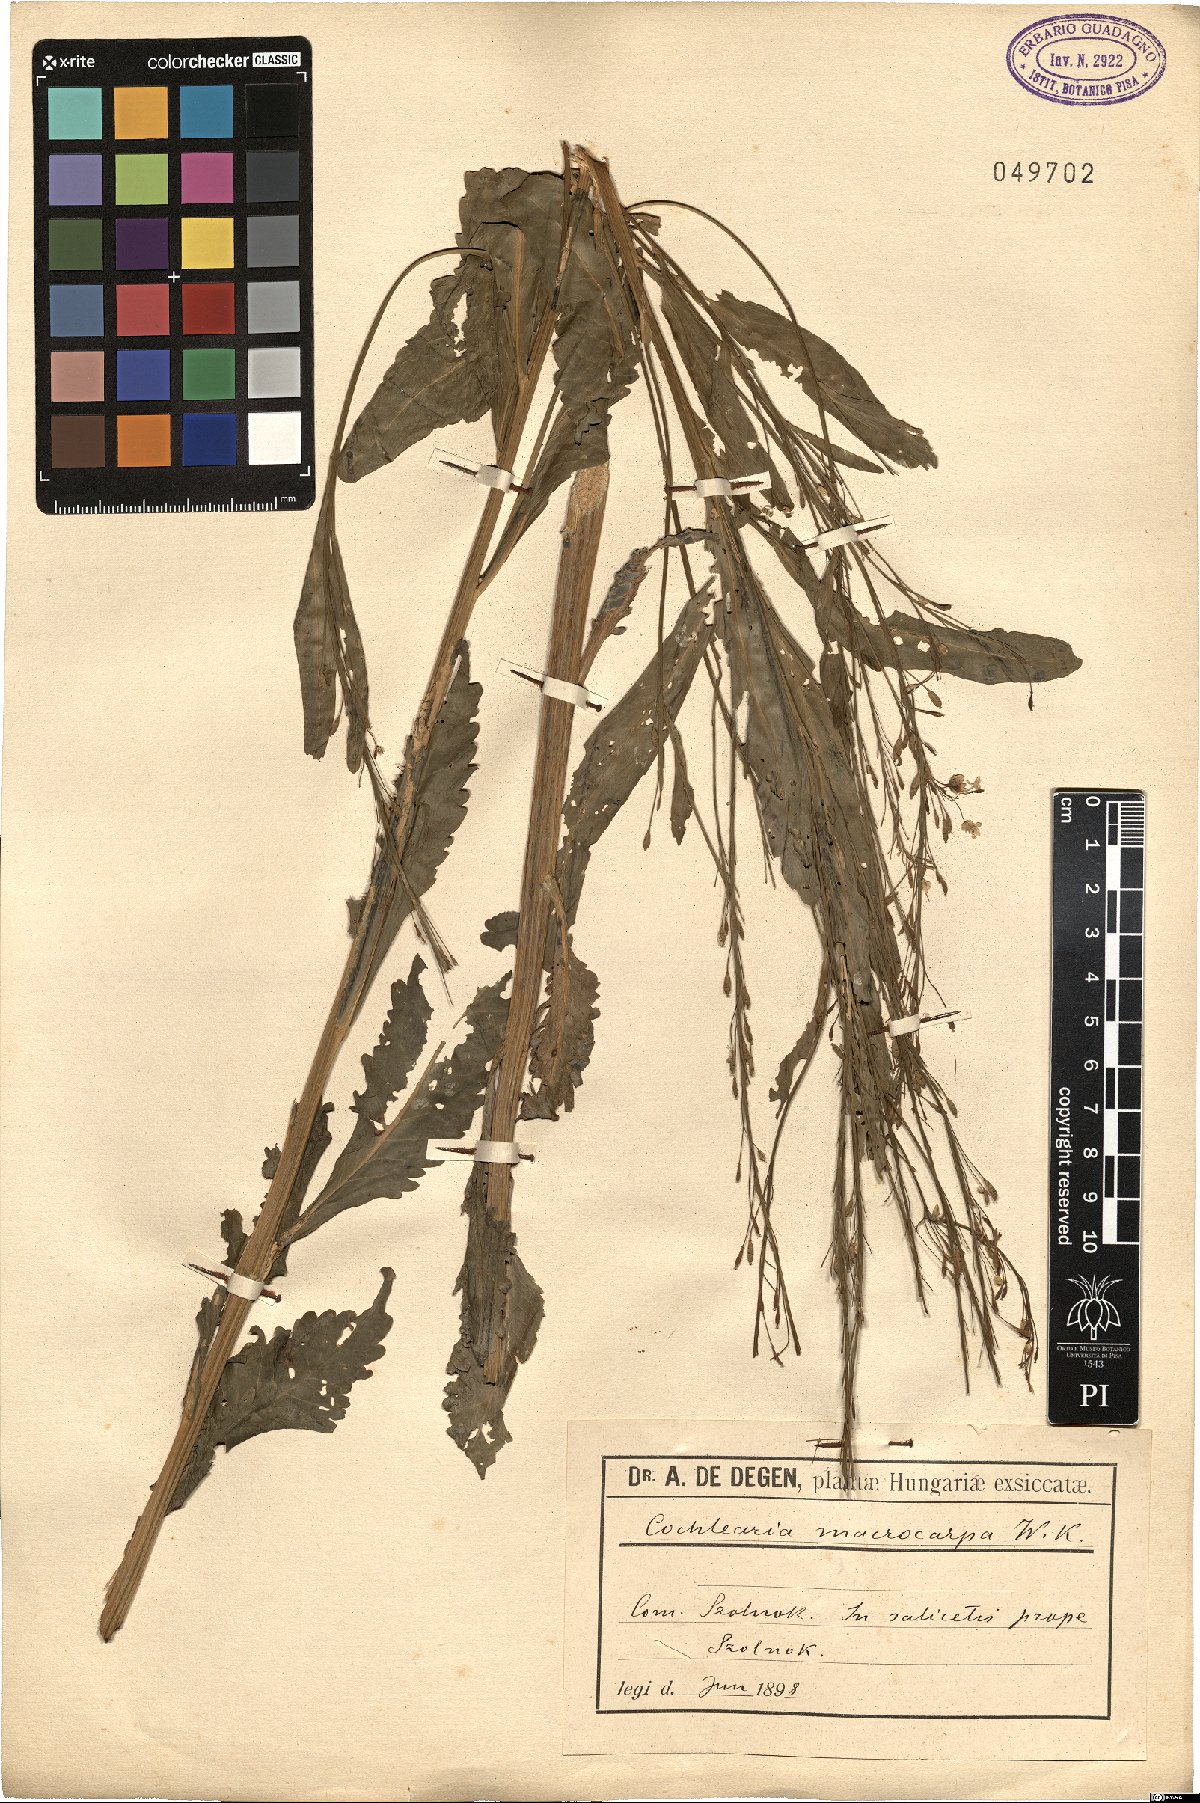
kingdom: Plantae
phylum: Tracheophyta
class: Magnoliopsida
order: Brassicales
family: Brassicaceae
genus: Armoracia
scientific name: Armoracia macrocarpa
